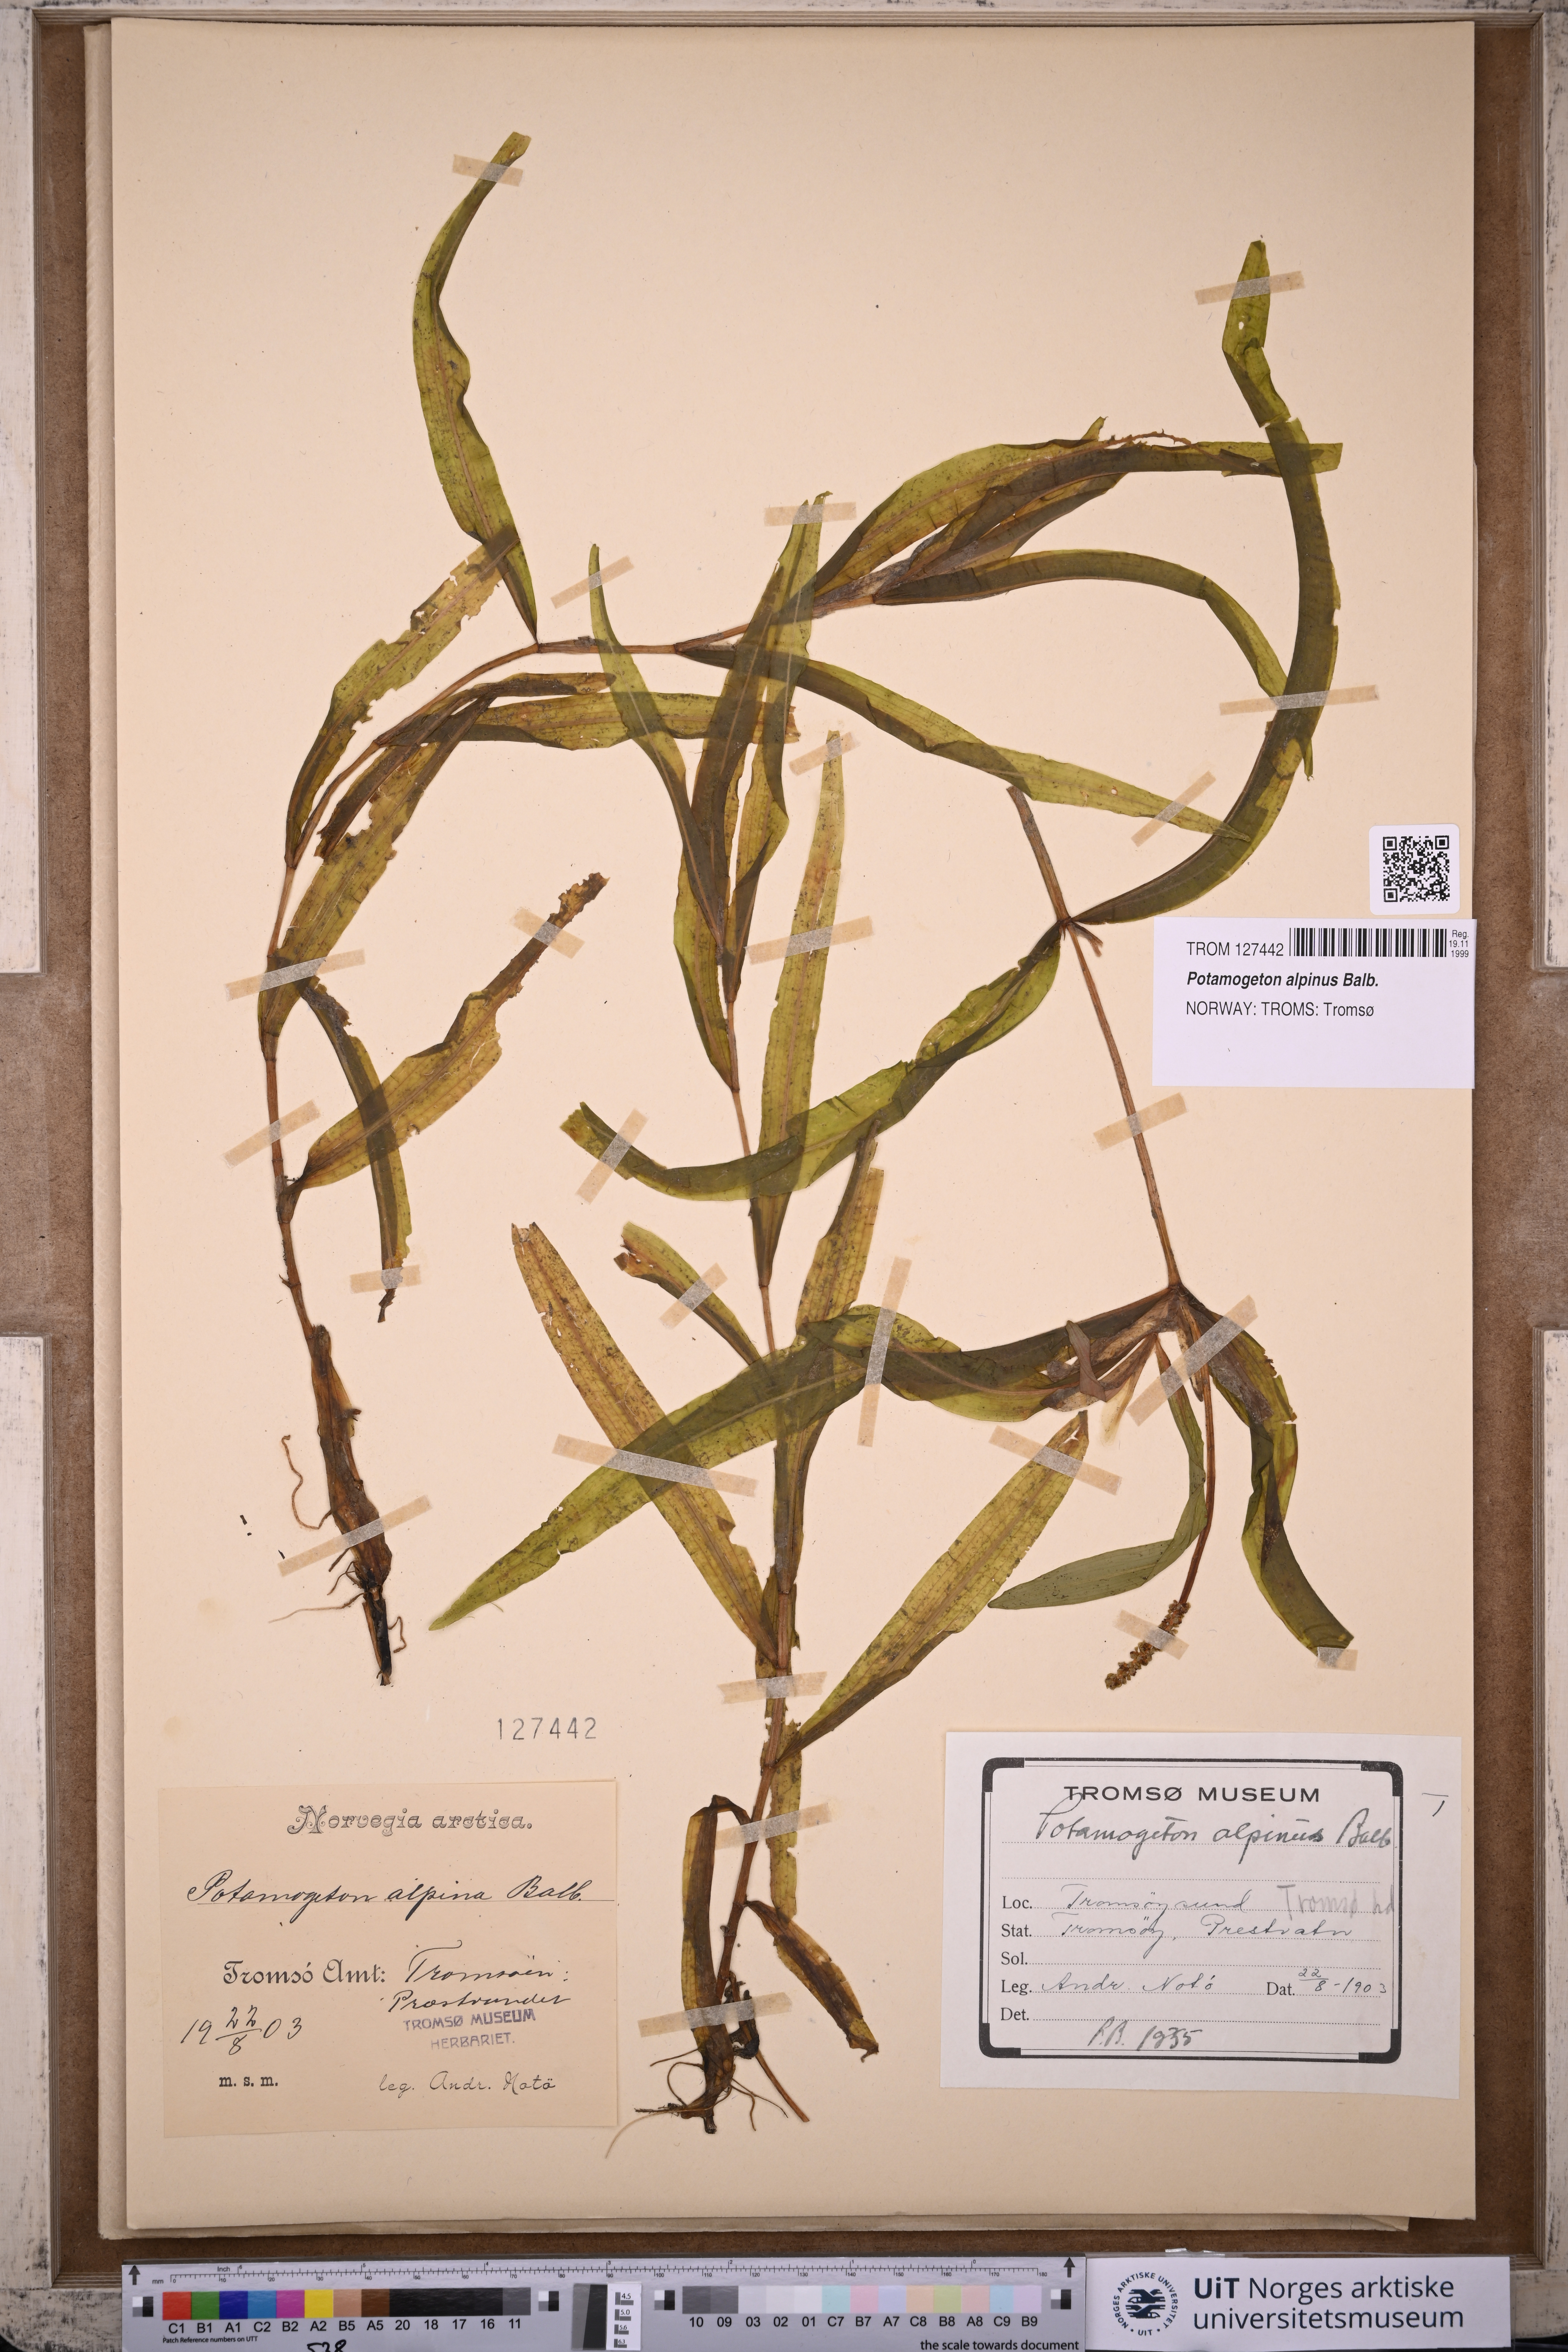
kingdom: Plantae
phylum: Tracheophyta
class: Liliopsida
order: Alismatales
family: Potamogetonaceae
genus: Potamogeton
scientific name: Potamogeton alpinus
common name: Red pondweed
